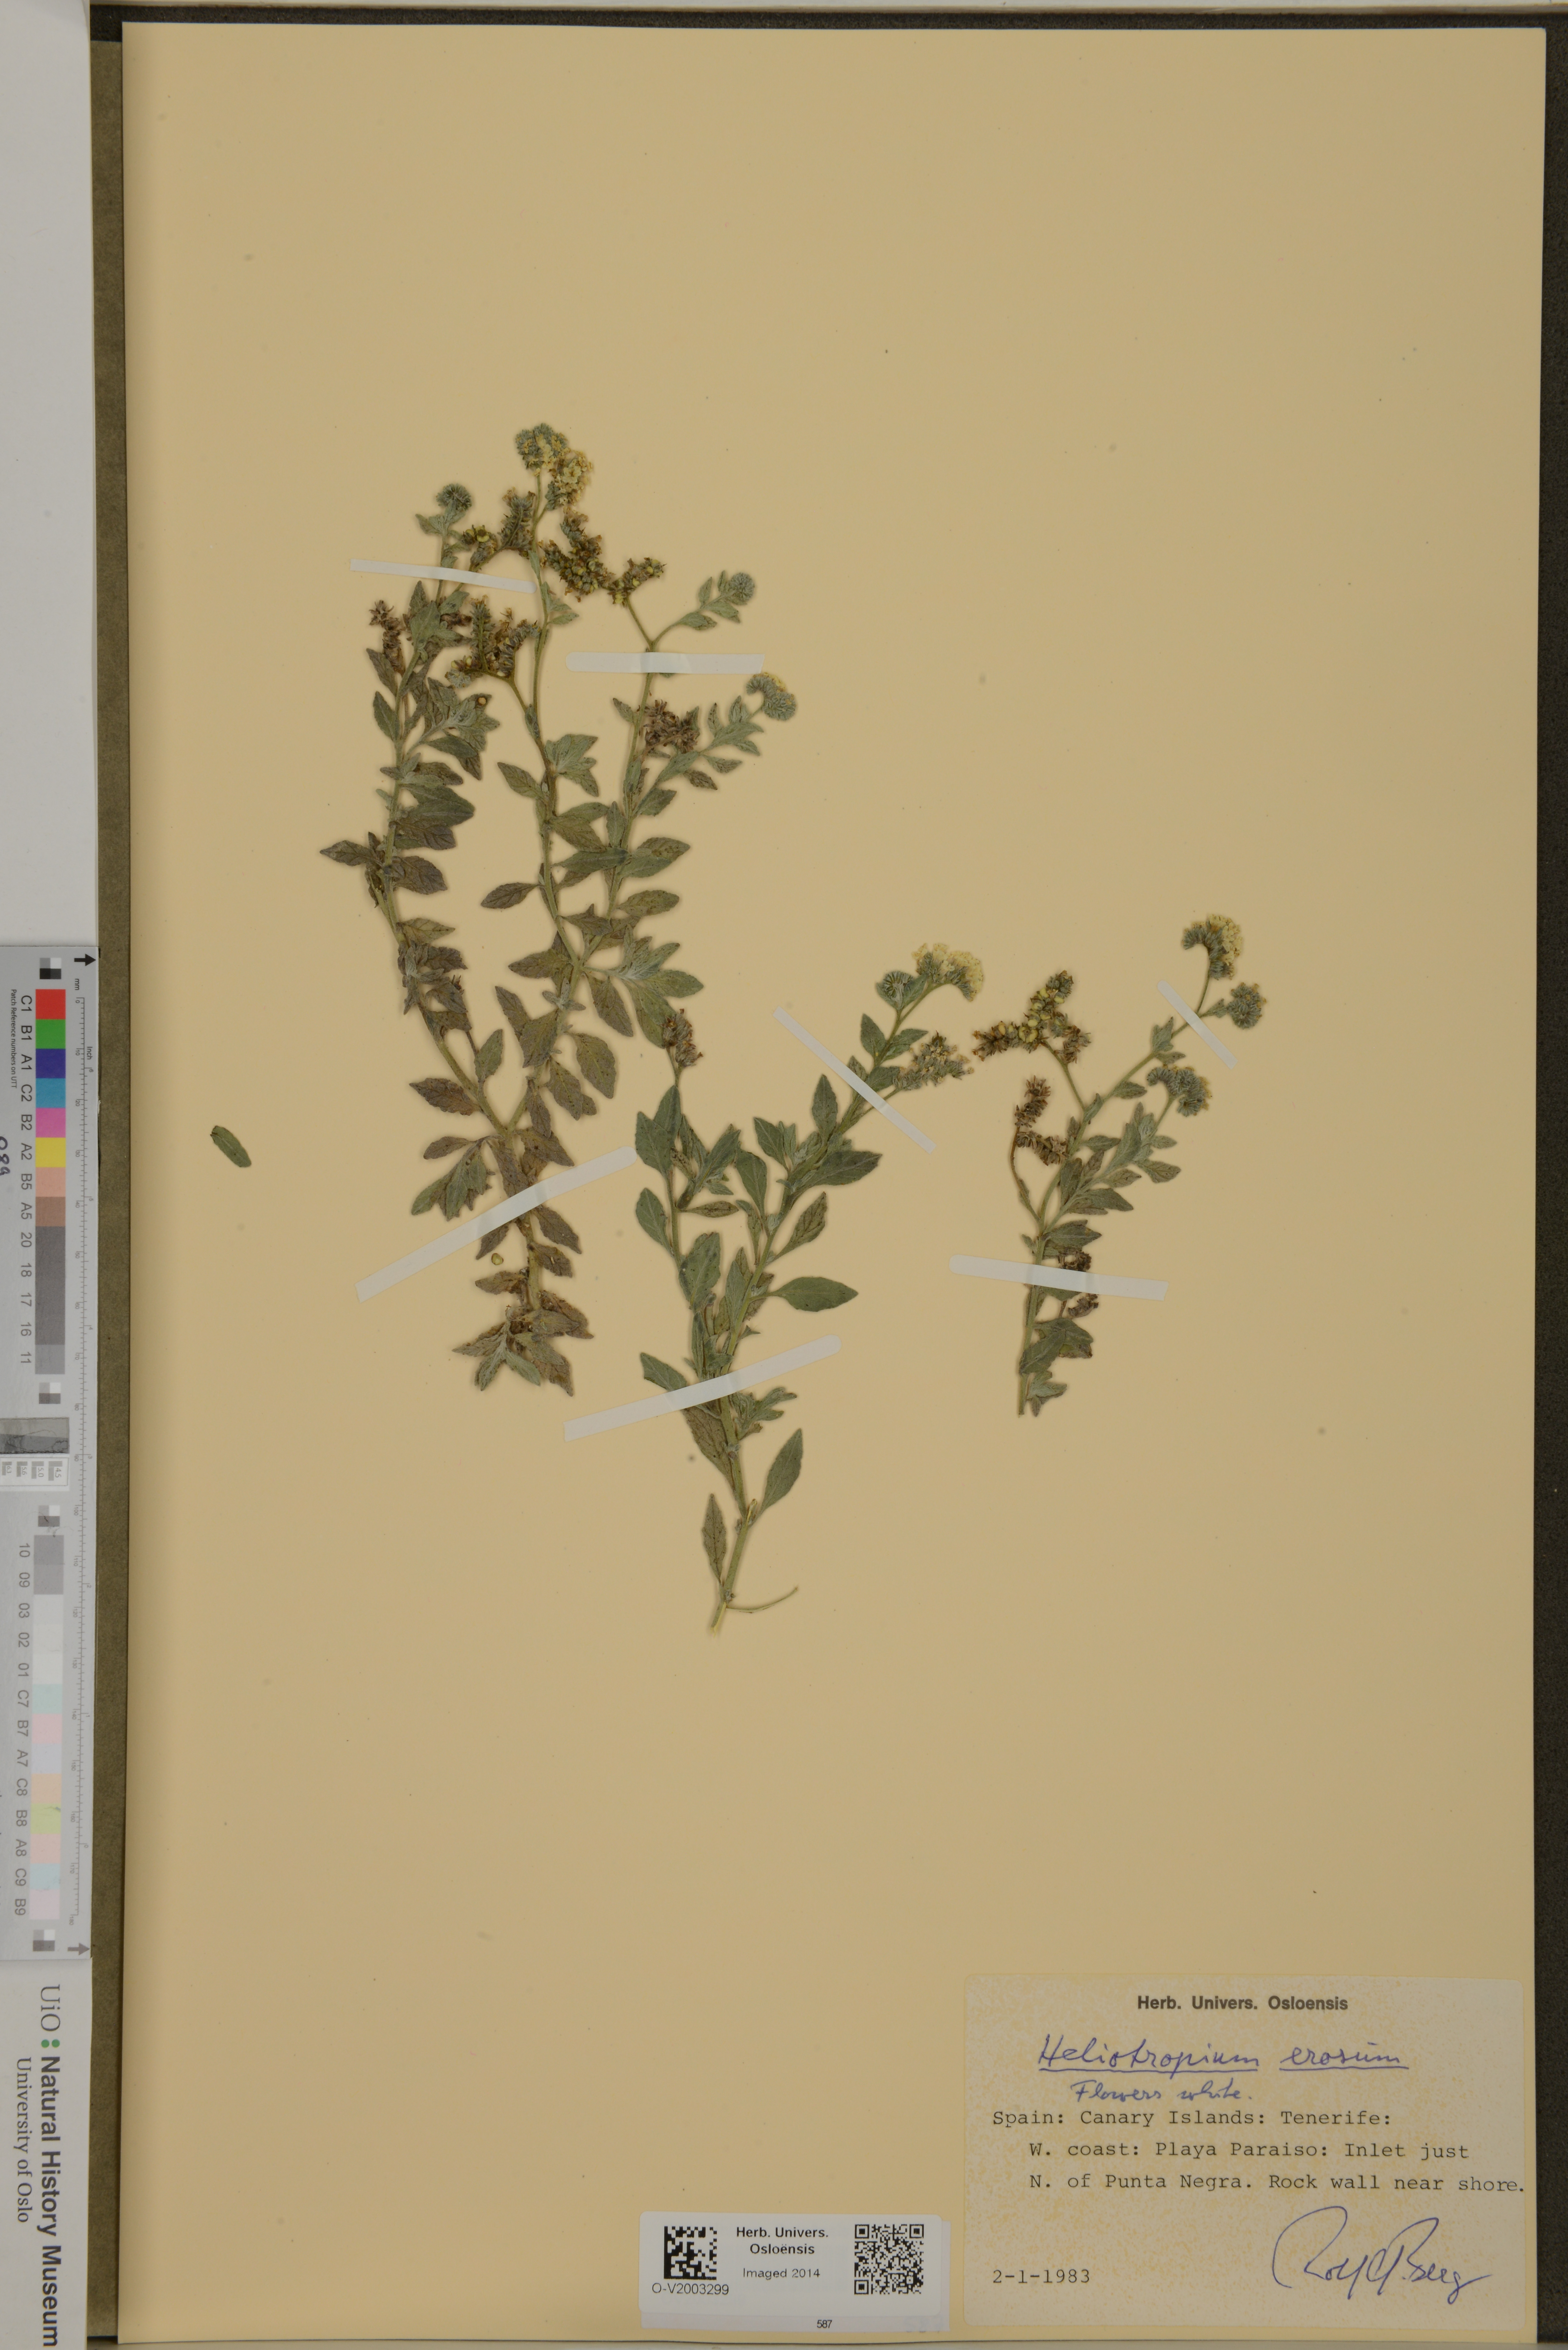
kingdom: Plantae
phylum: Tracheophyta
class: Magnoliopsida
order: Boraginales
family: Heliotropiaceae
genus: Heliotropium
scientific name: Heliotropium crispum
